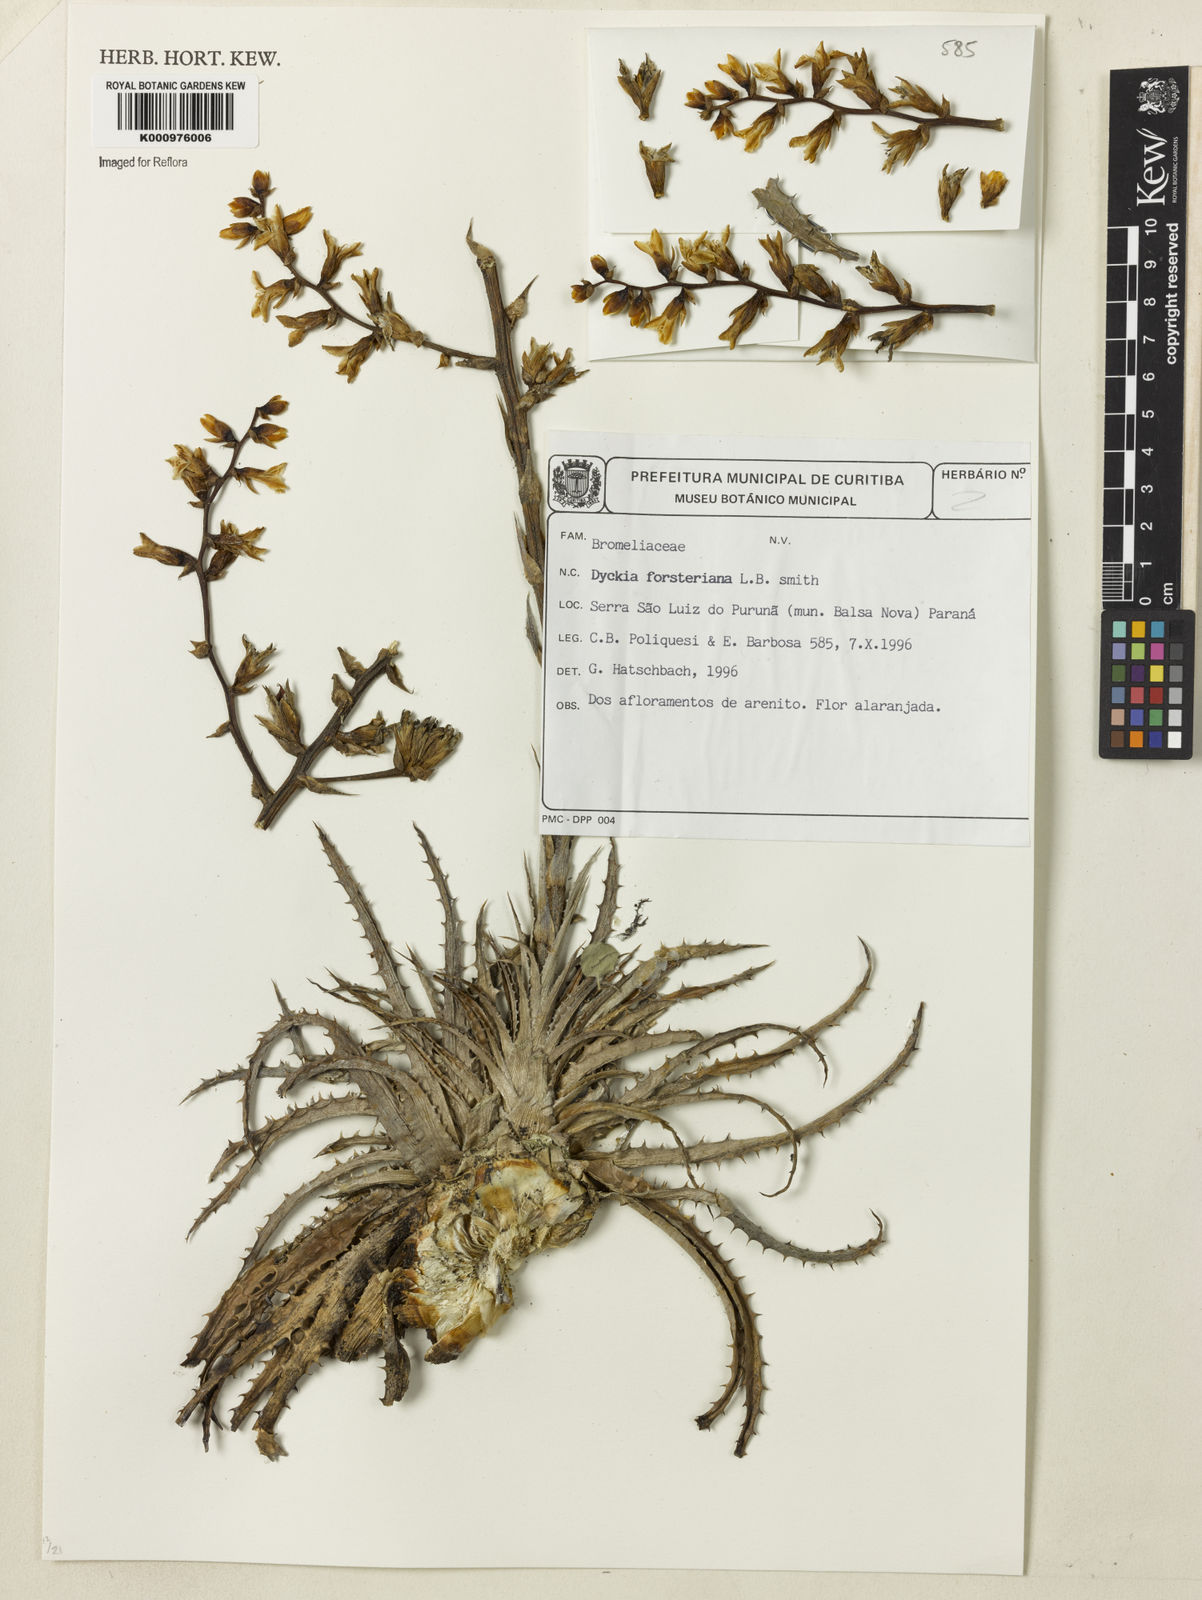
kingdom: Plantae
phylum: Tracheophyta
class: Liliopsida
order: Poales
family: Bromeliaceae
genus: Dyckia
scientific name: Dyckia fosteriana
